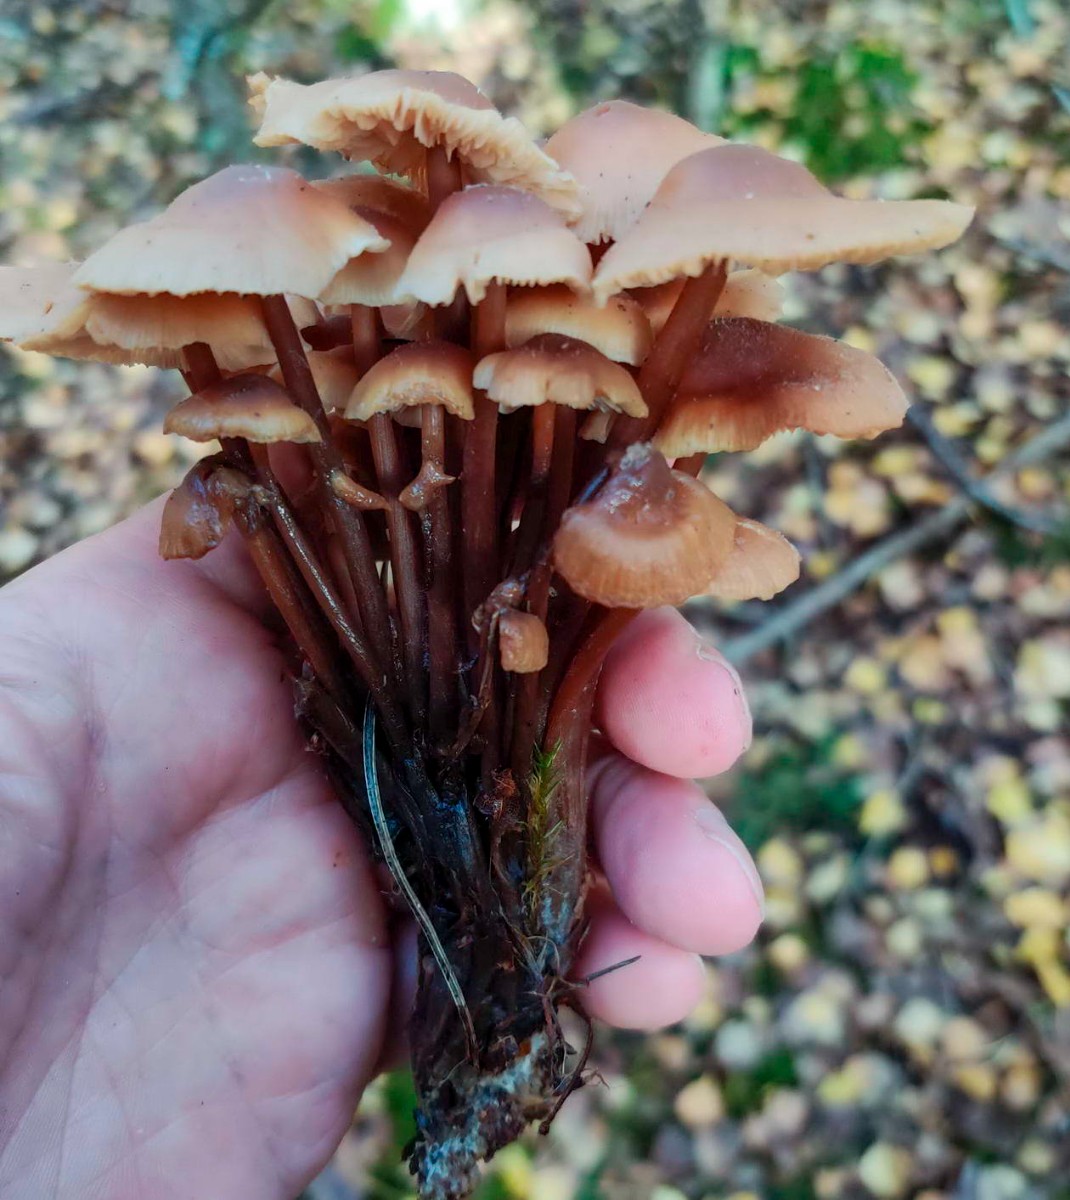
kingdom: Fungi
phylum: Basidiomycota
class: Agaricomycetes
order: Agaricales
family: Omphalotaceae
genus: Connopus
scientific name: Connopus acervatus
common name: tue-fladhat
